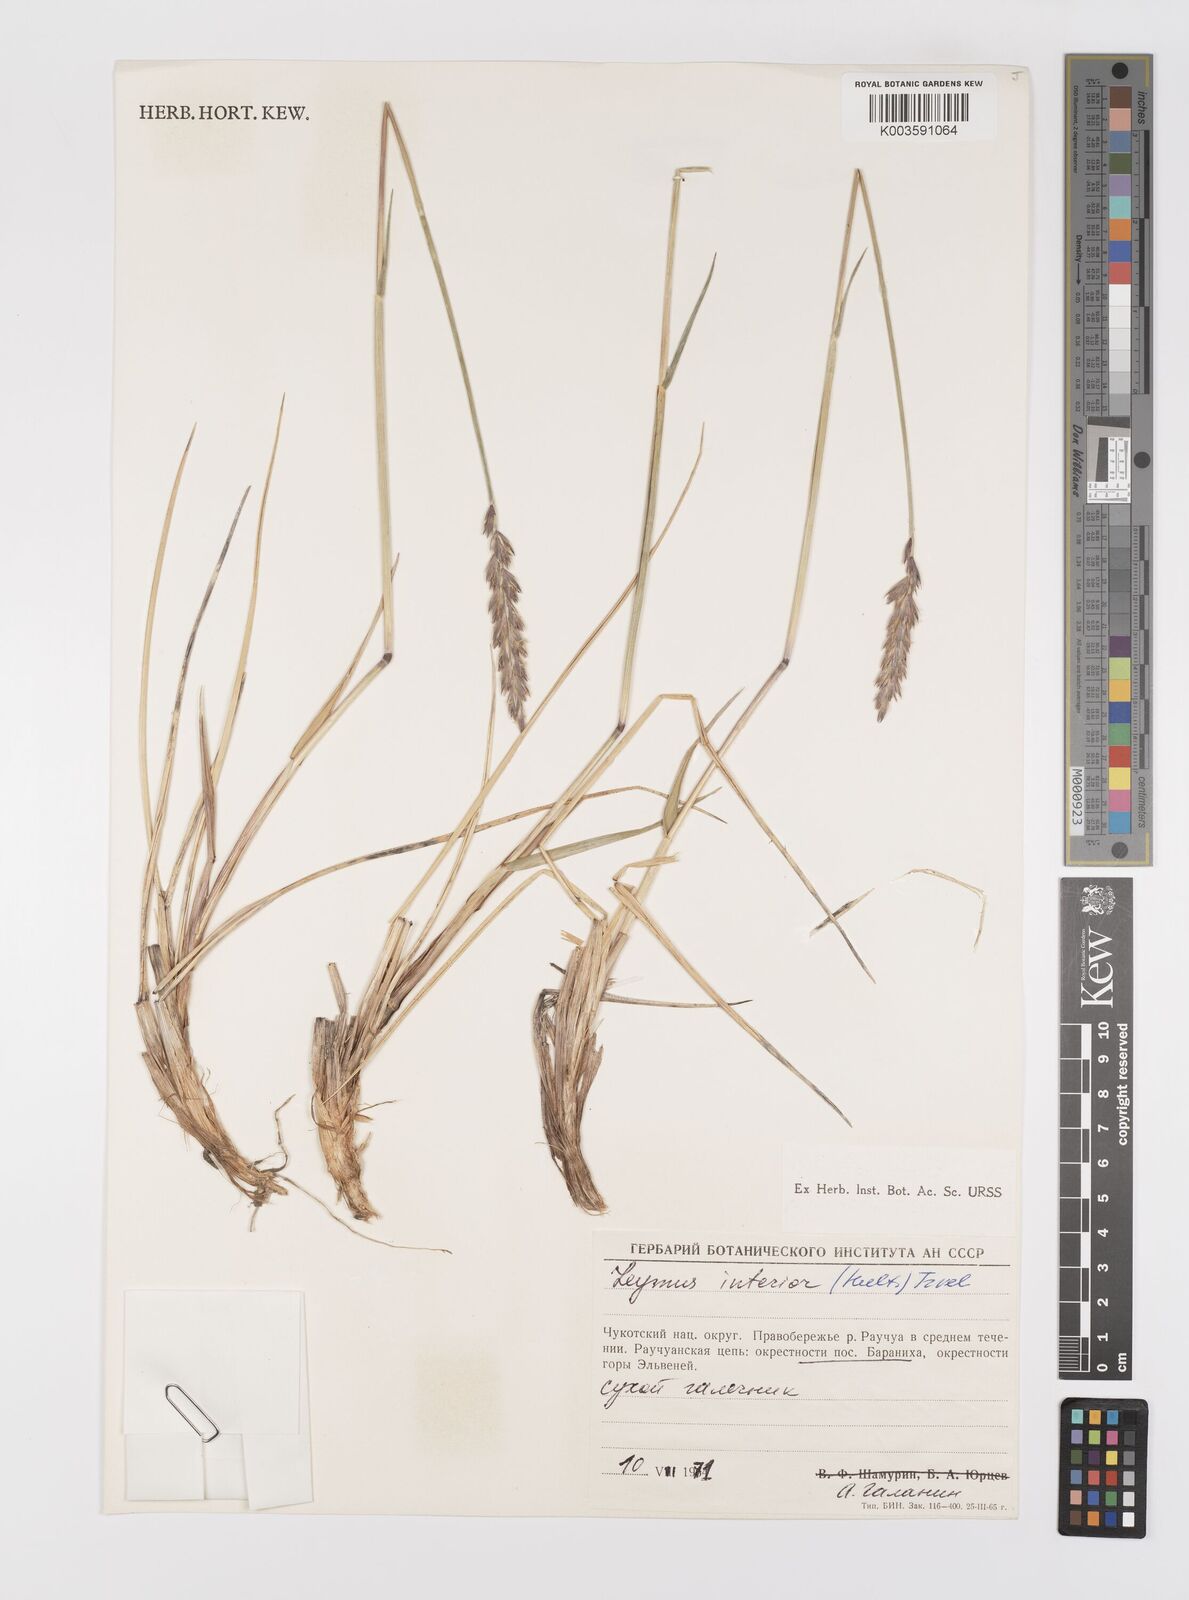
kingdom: Plantae
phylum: Tracheophyta
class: Liliopsida
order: Poales
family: Poaceae
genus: Leymus
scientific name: Leymus ajanensis
